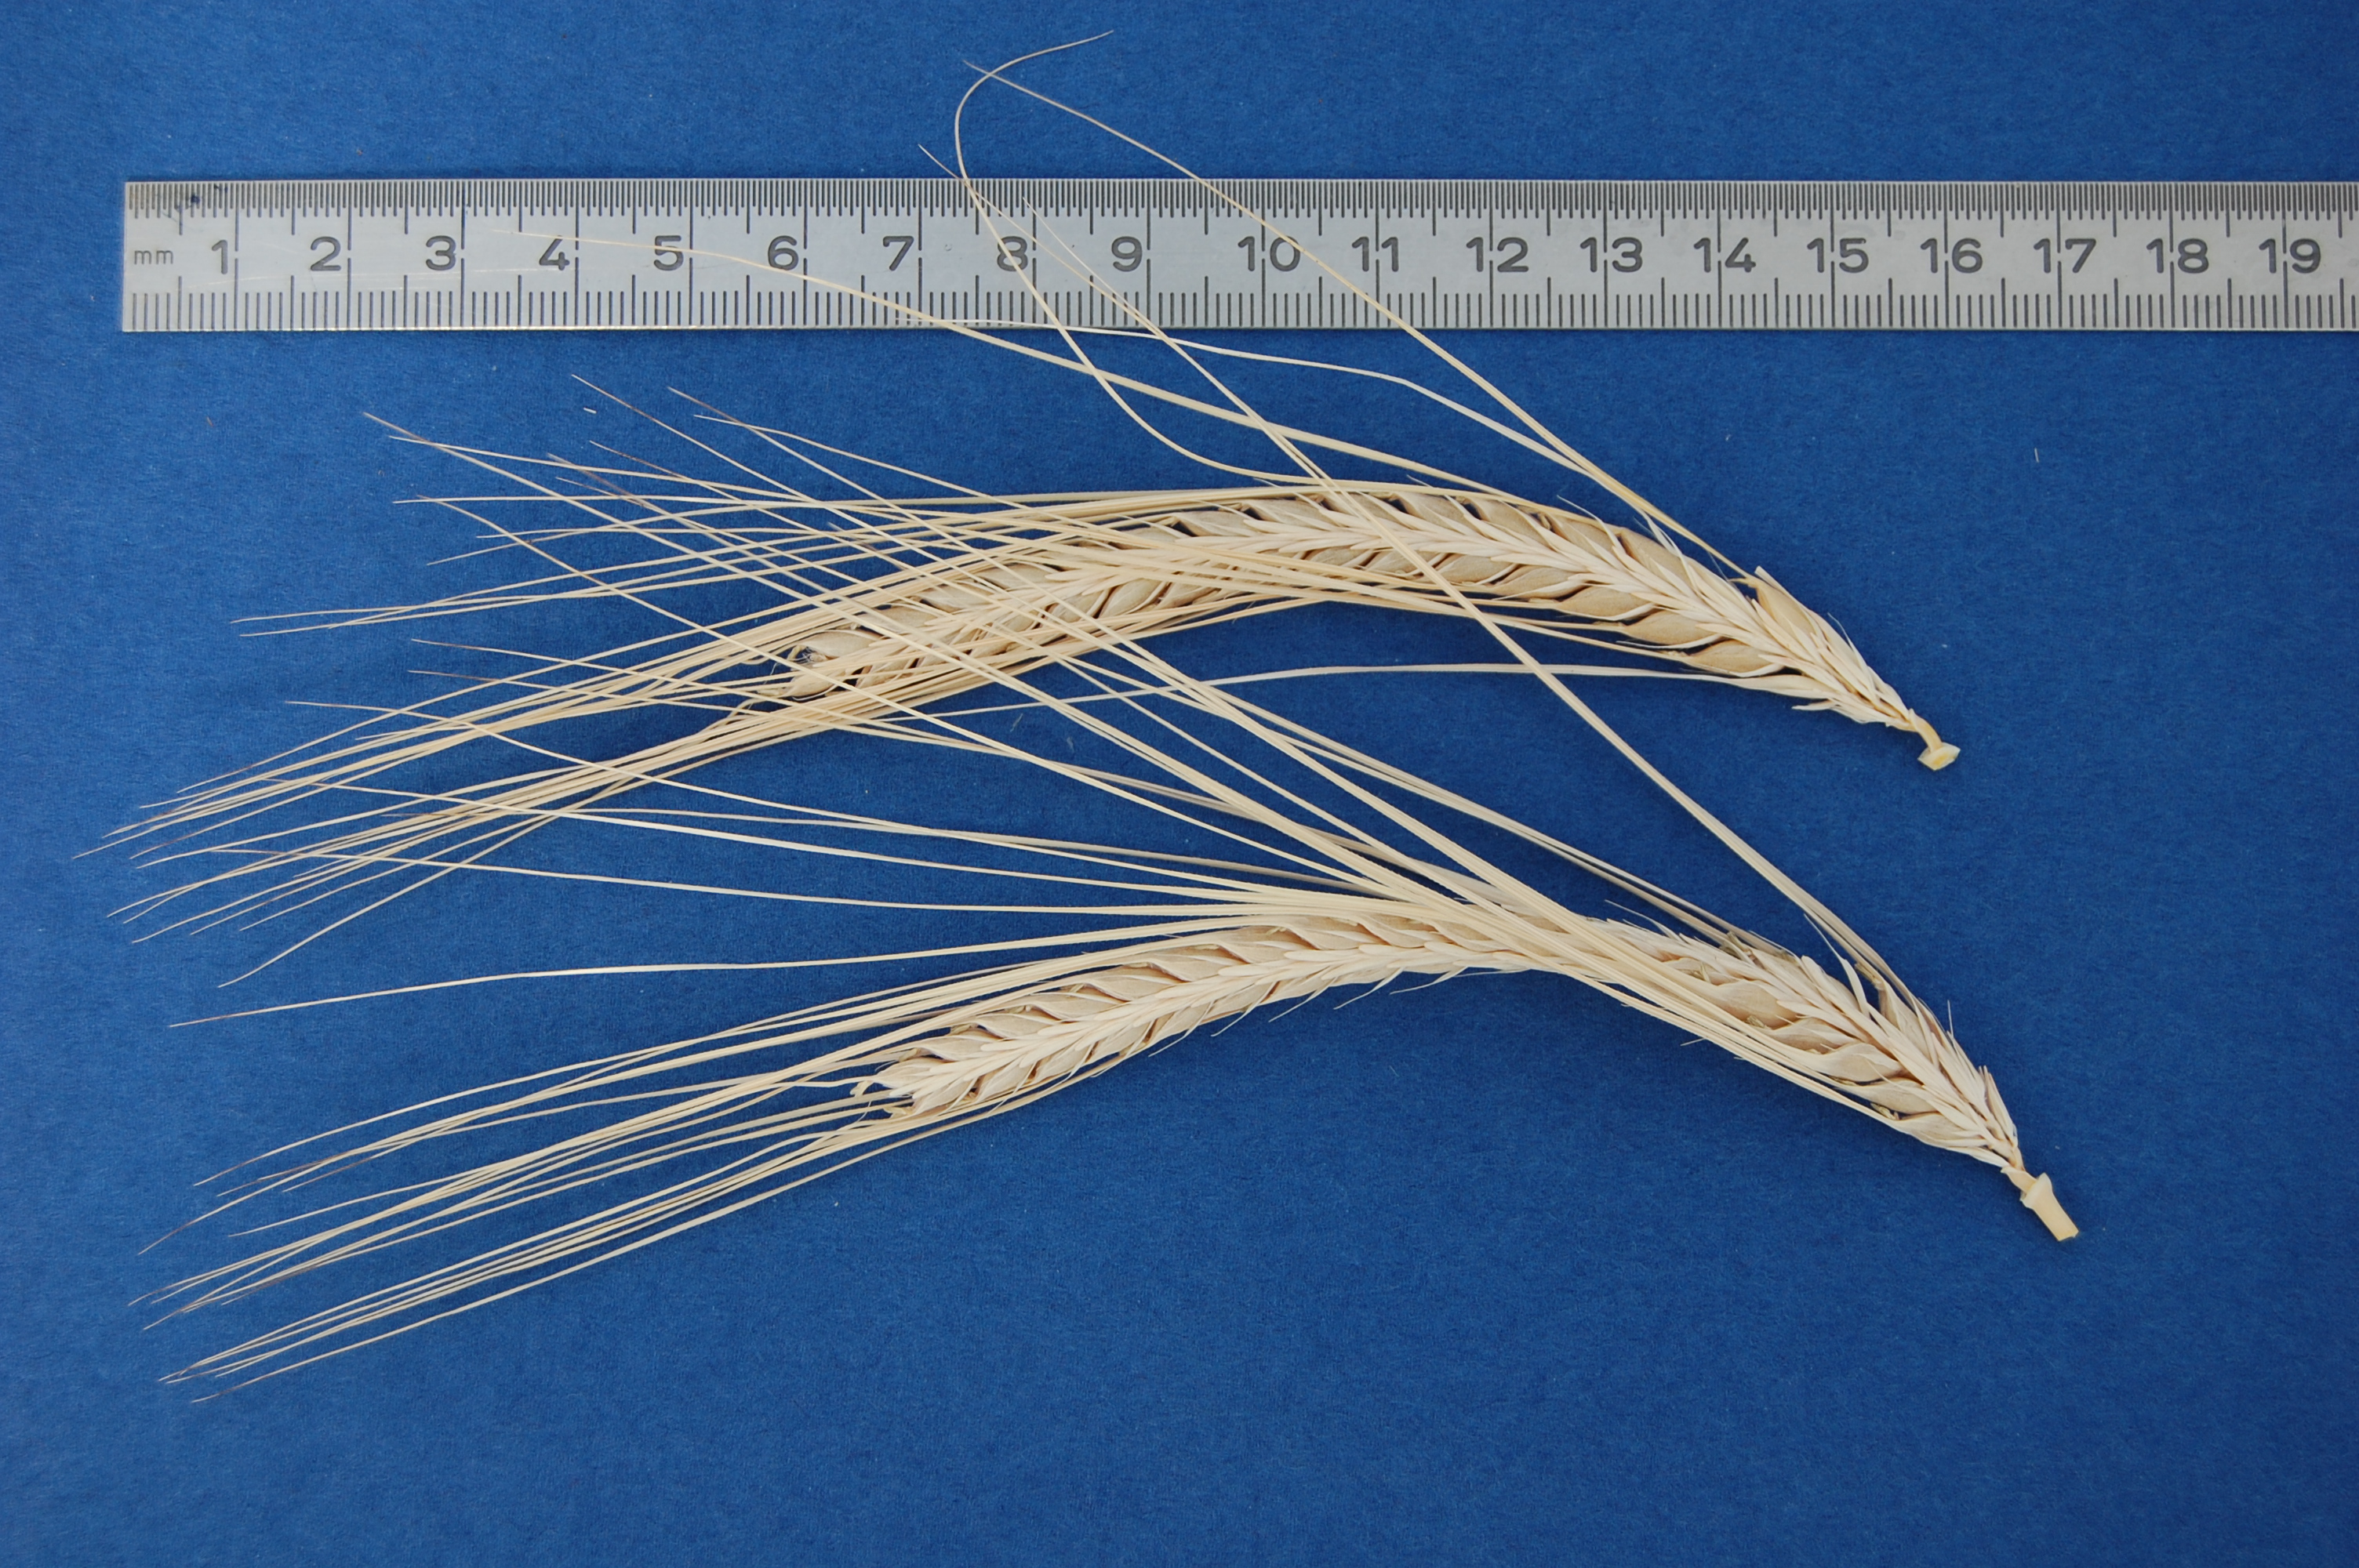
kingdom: Plantae
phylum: Tracheophyta
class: Liliopsida
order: Poales
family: Poaceae
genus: Hordeum
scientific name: Hordeum vulgare
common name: Common barley
